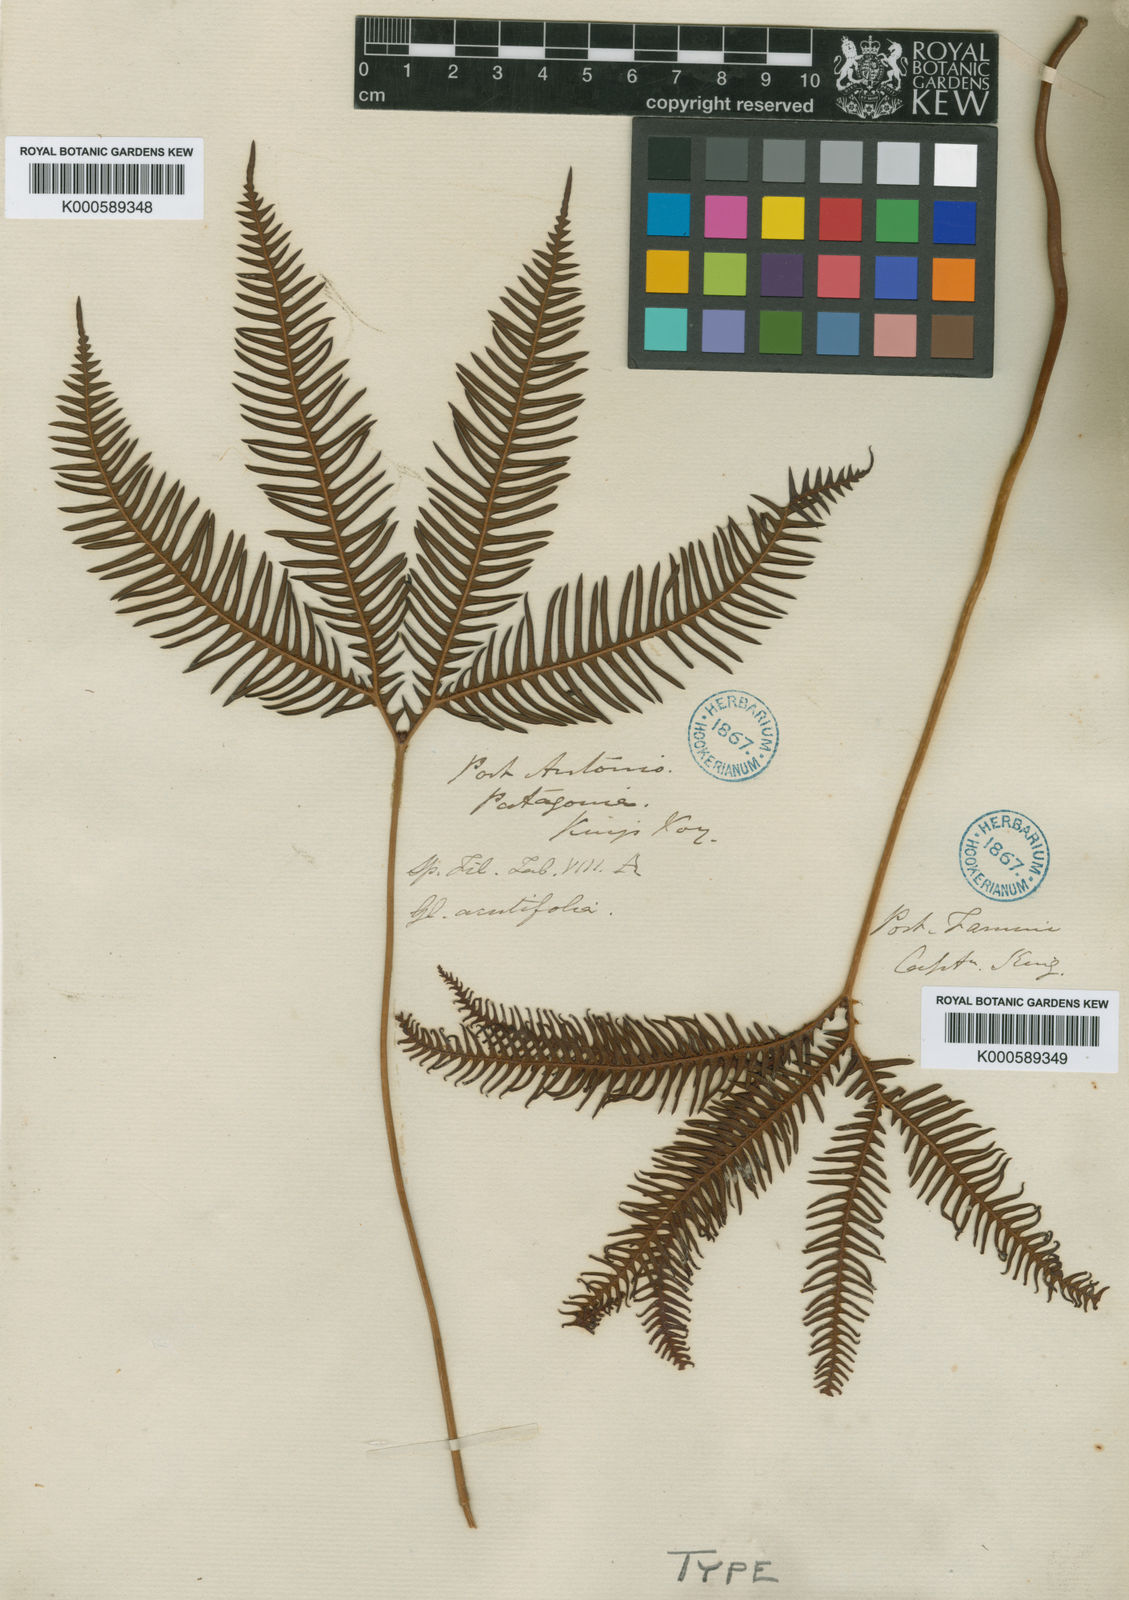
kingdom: Plantae
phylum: Tracheophyta
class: Polypodiopsida
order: Gleicheniales
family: Gleicheniaceae
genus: Sticherus
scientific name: Sticherus quadripartitus
